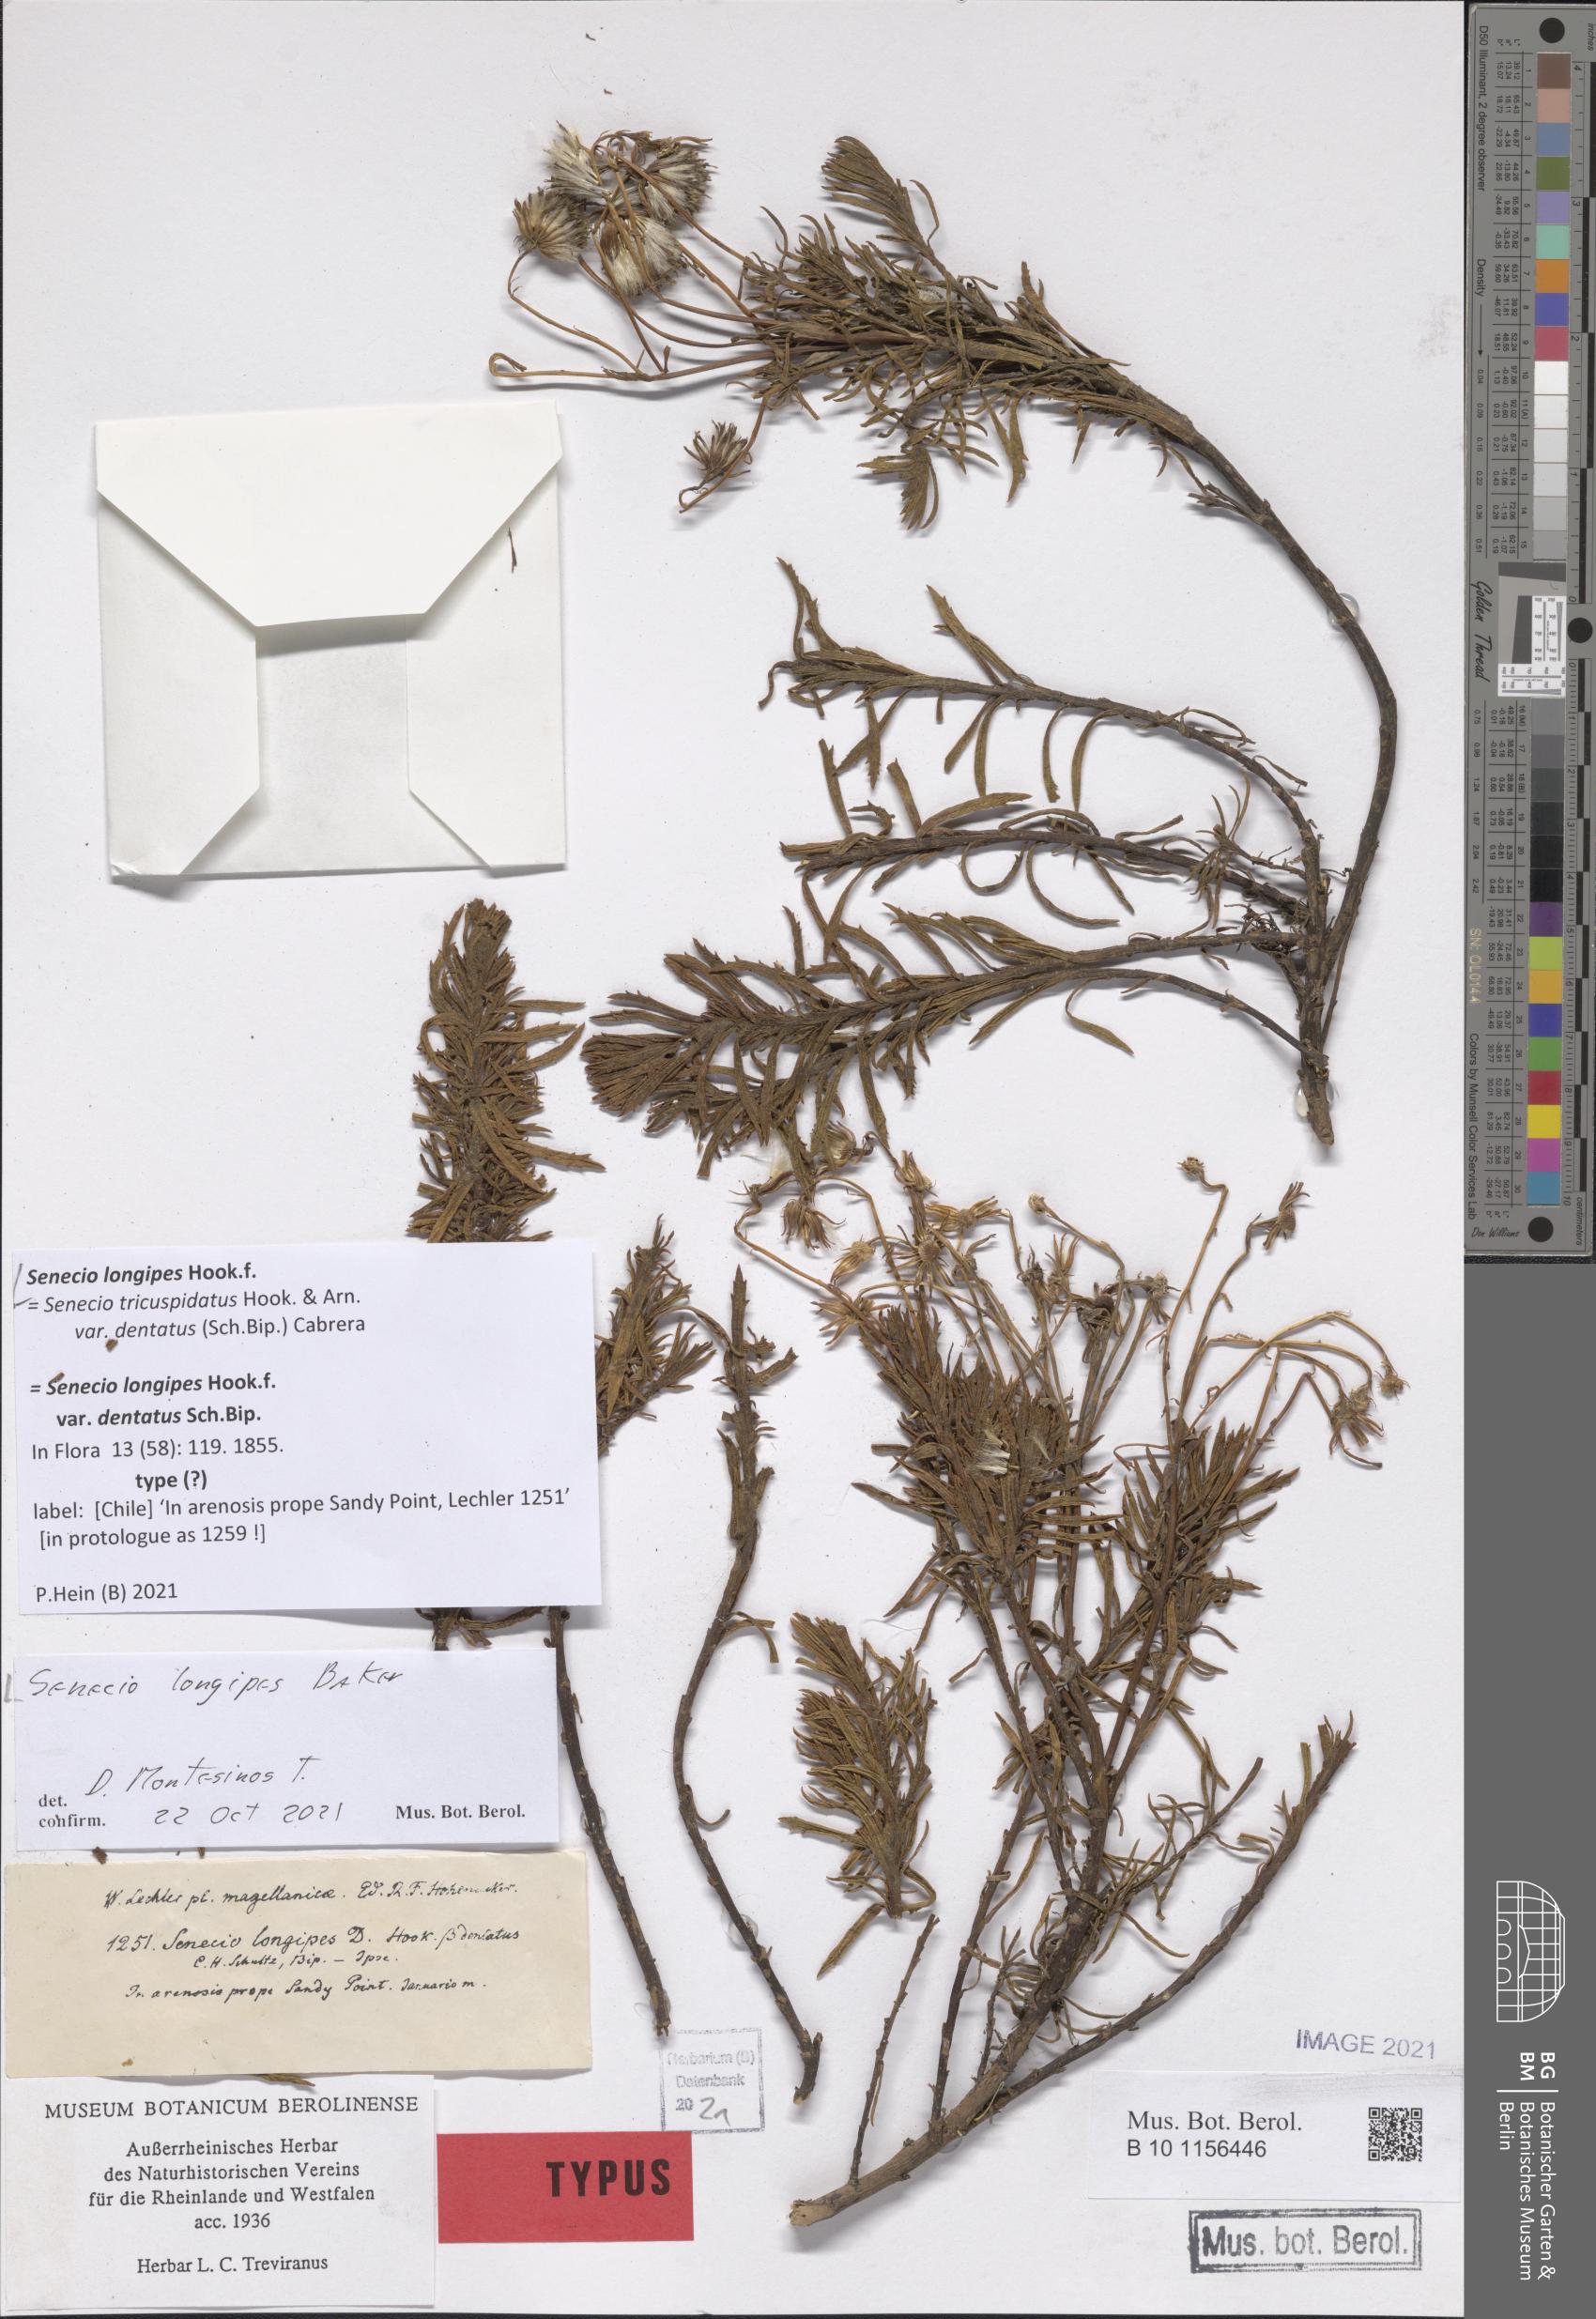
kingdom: Plantae
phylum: Tracheophyta
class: Magnoliopsida
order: Asterales
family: Asteraceae
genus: Senecio
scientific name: Senecio tricuspidatus
